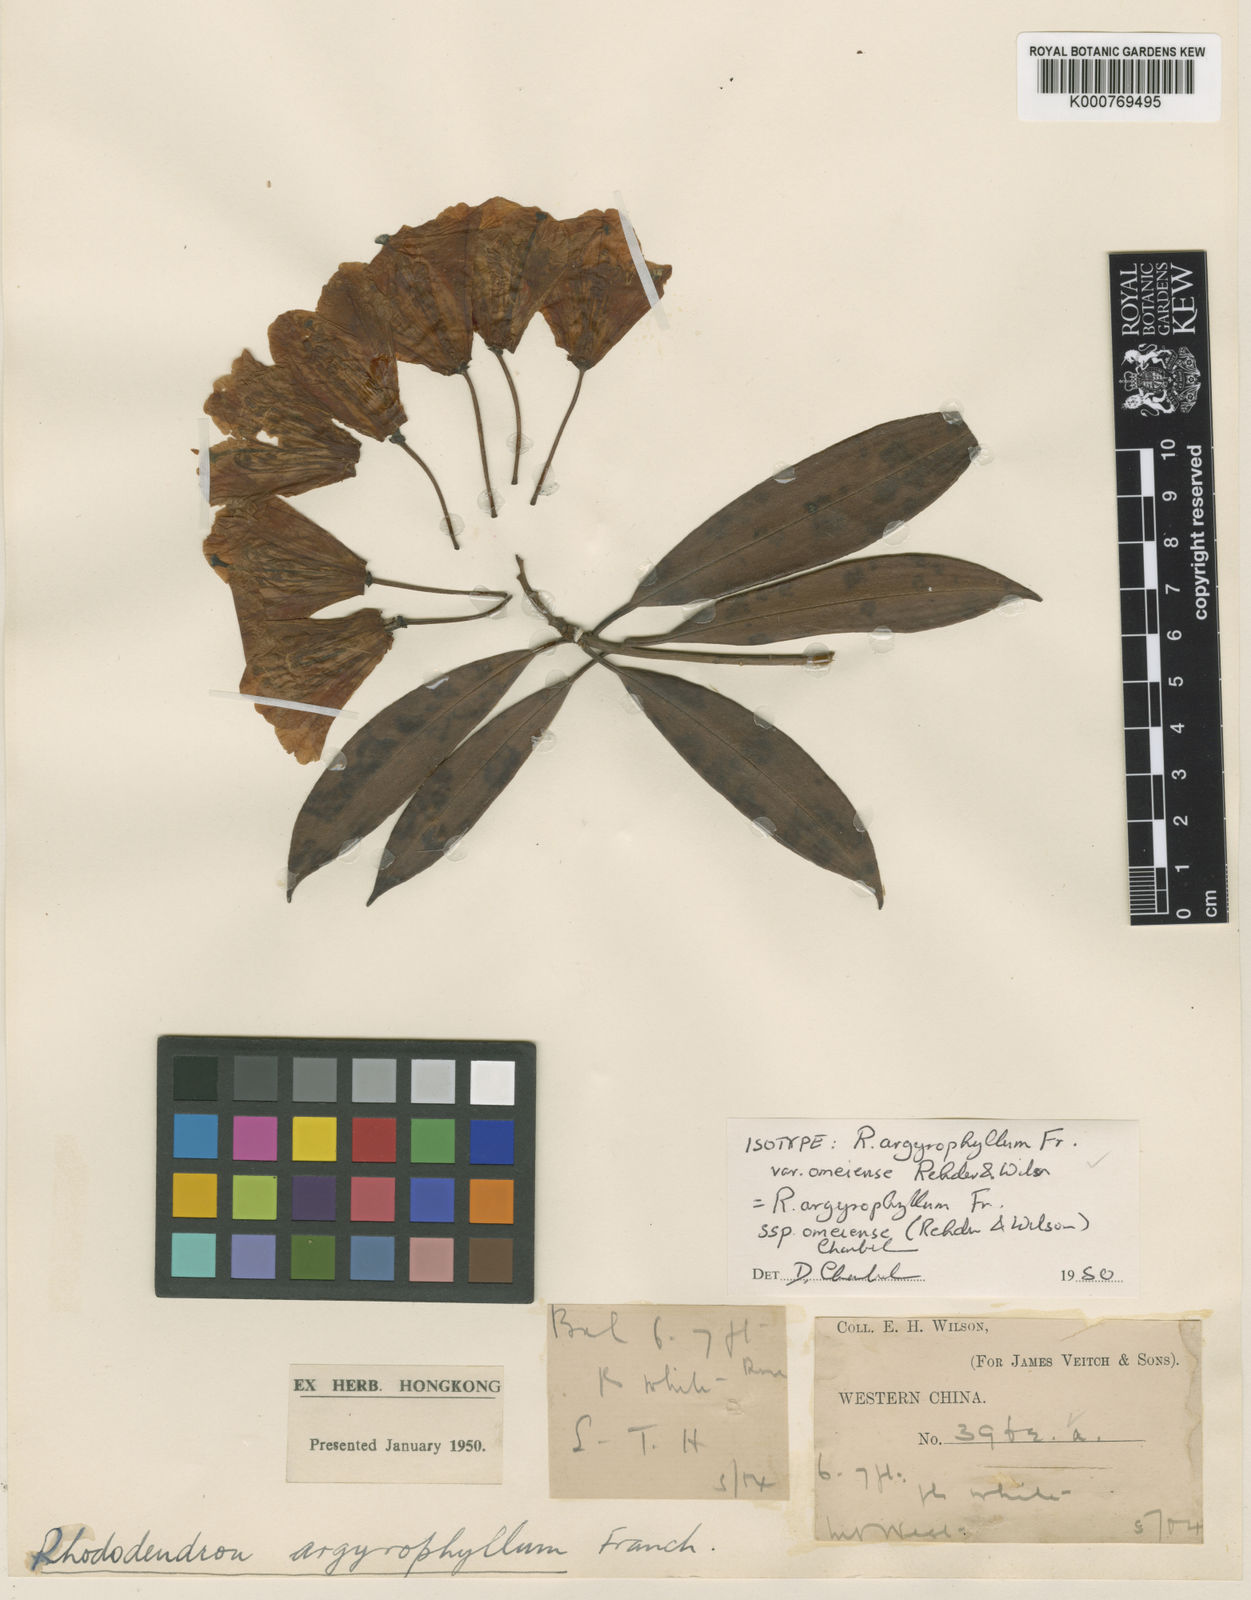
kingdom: Plantae
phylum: Tracheophyta
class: Magnoliopsida
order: Ericales
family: Ericaceae
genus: Rhododendron
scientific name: Rhododendron argyrophyllum
